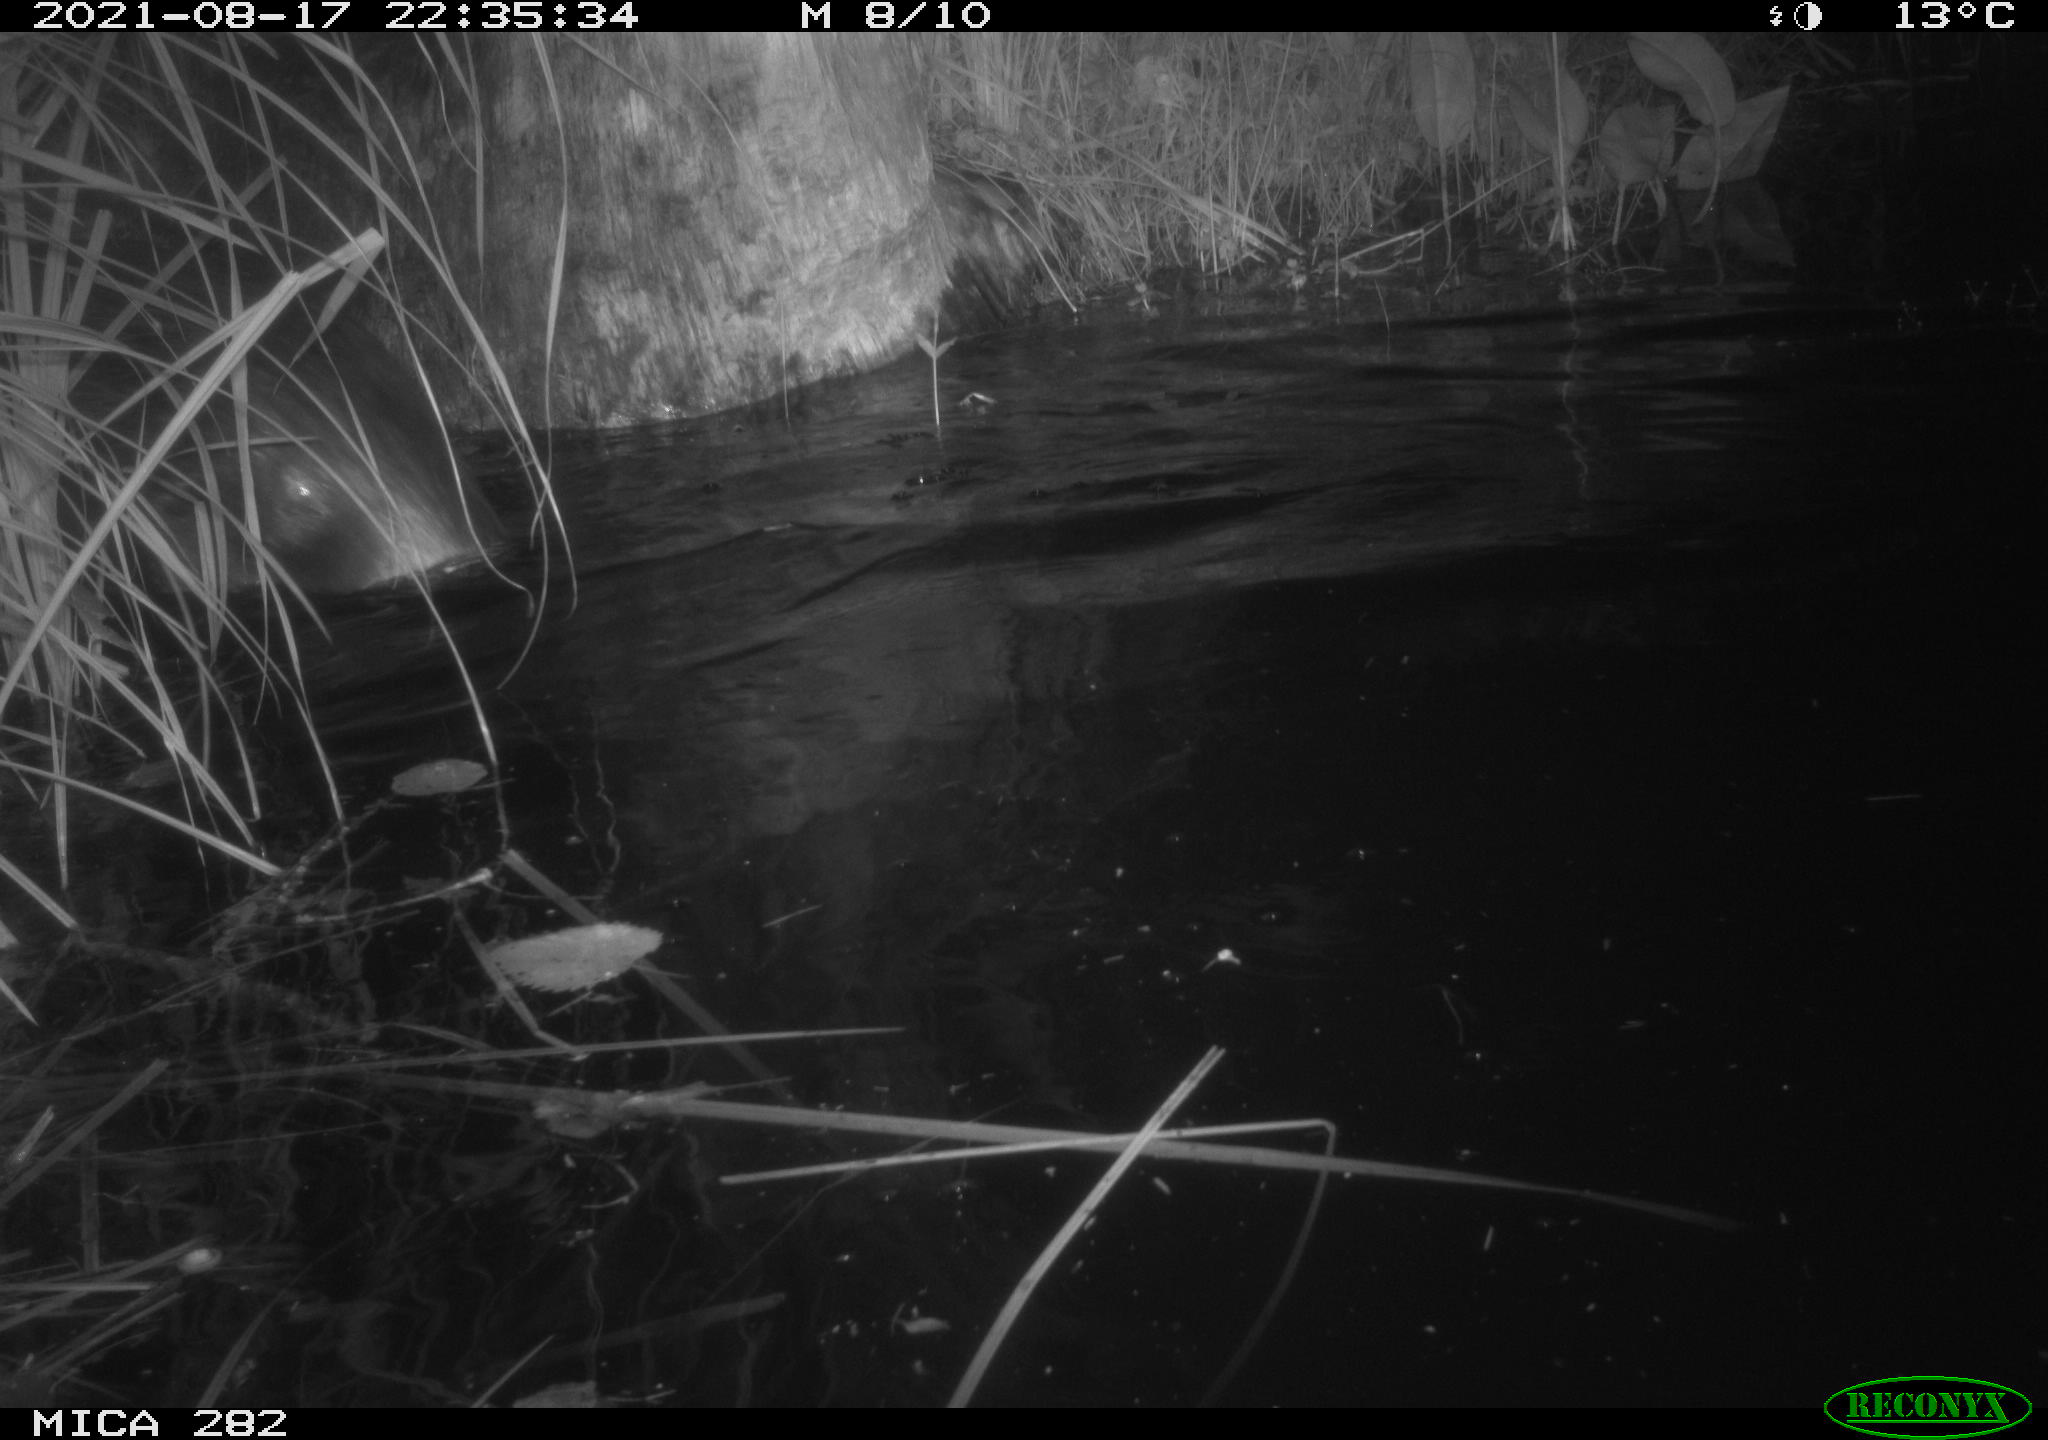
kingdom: Animalia
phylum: Chordata
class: Mammalia
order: Rodentia
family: Castoridae
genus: Castor
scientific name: Castor fiber
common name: Eurasian beaver
